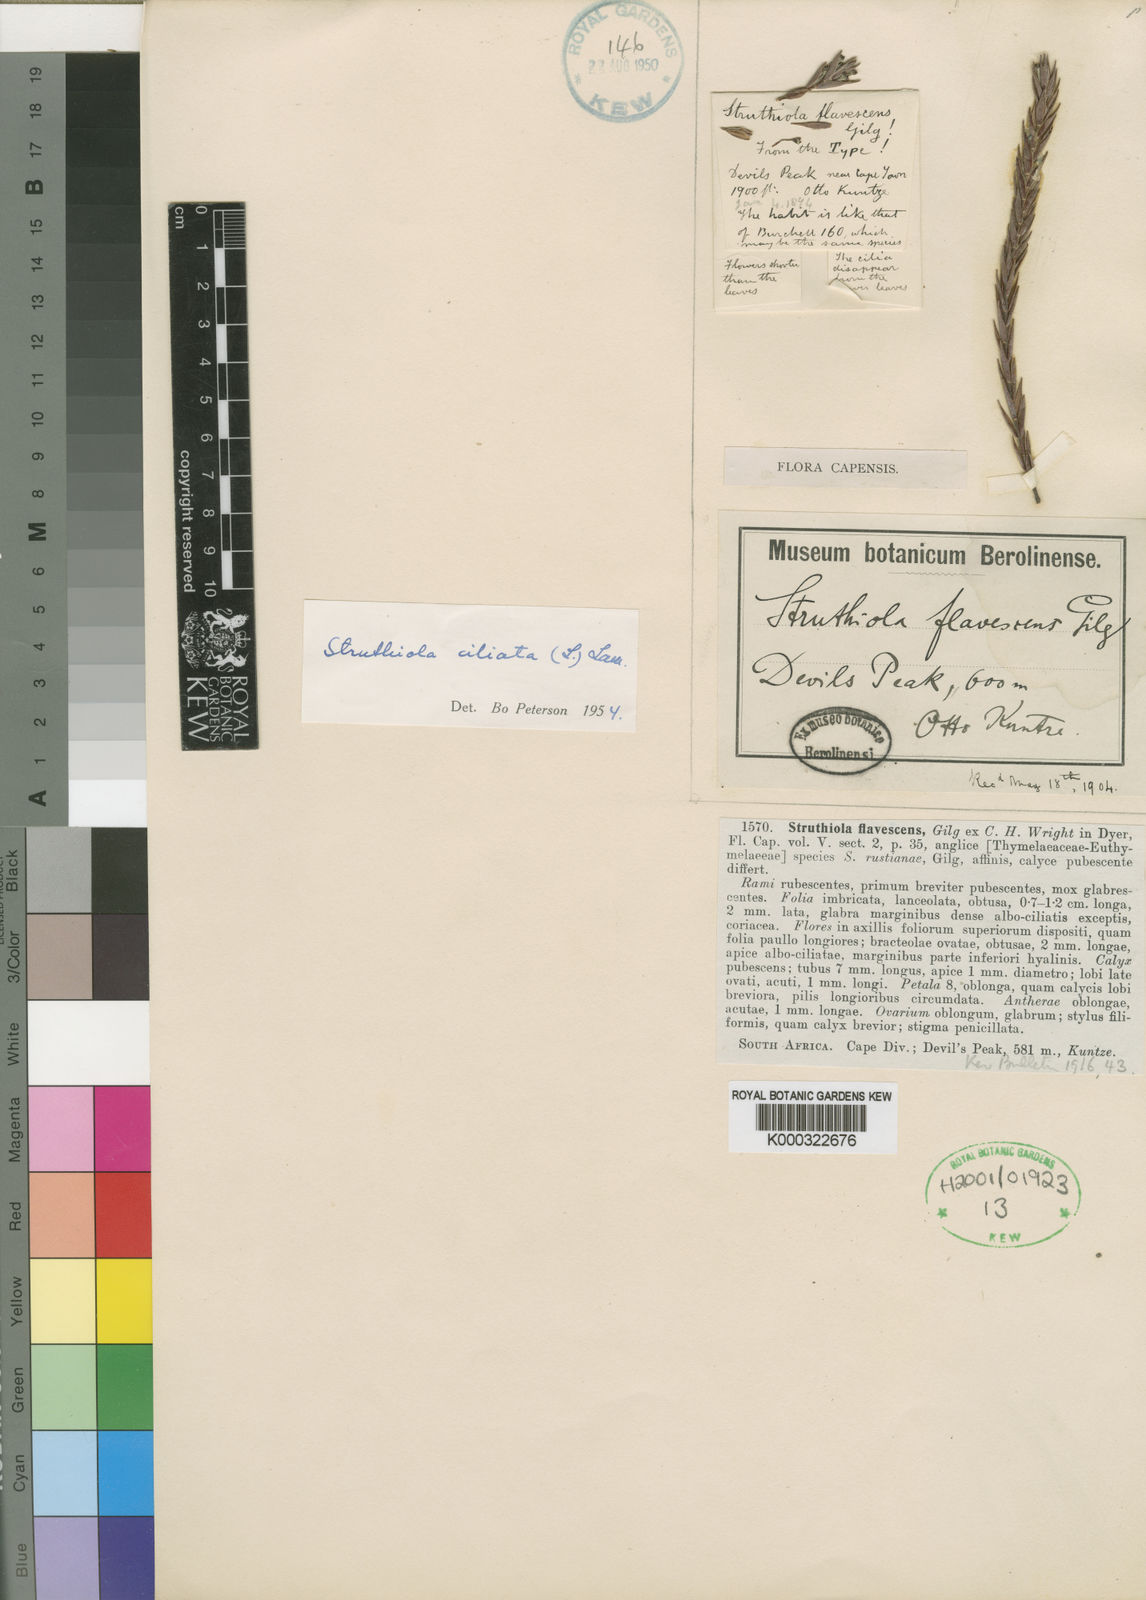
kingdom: Plantae
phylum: Tracheophyta
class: Magnoliopsida
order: Malvales
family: Thymelaeaceae
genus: Struthiola
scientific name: Struthiola ciliata
